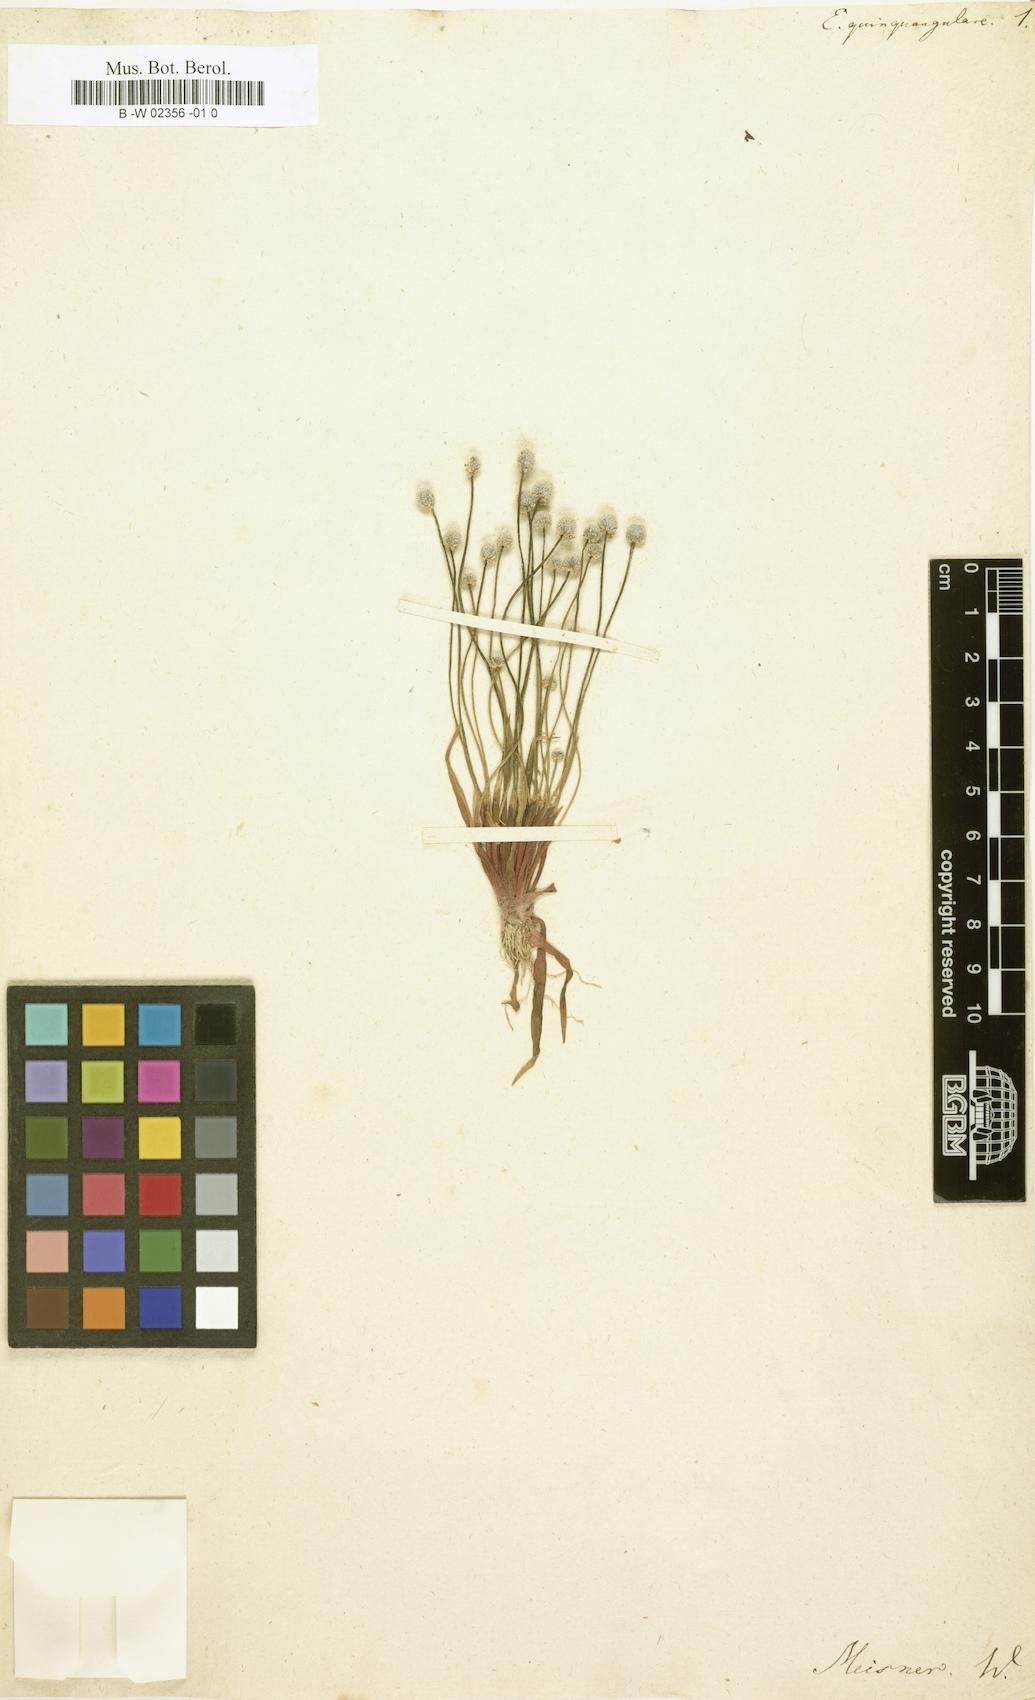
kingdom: Plantae
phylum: Tracheophyta
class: Liliopsida
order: Poales
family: Eriocaulaceae
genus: Eriocaulon
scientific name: Eriocaulon quinquangulare
